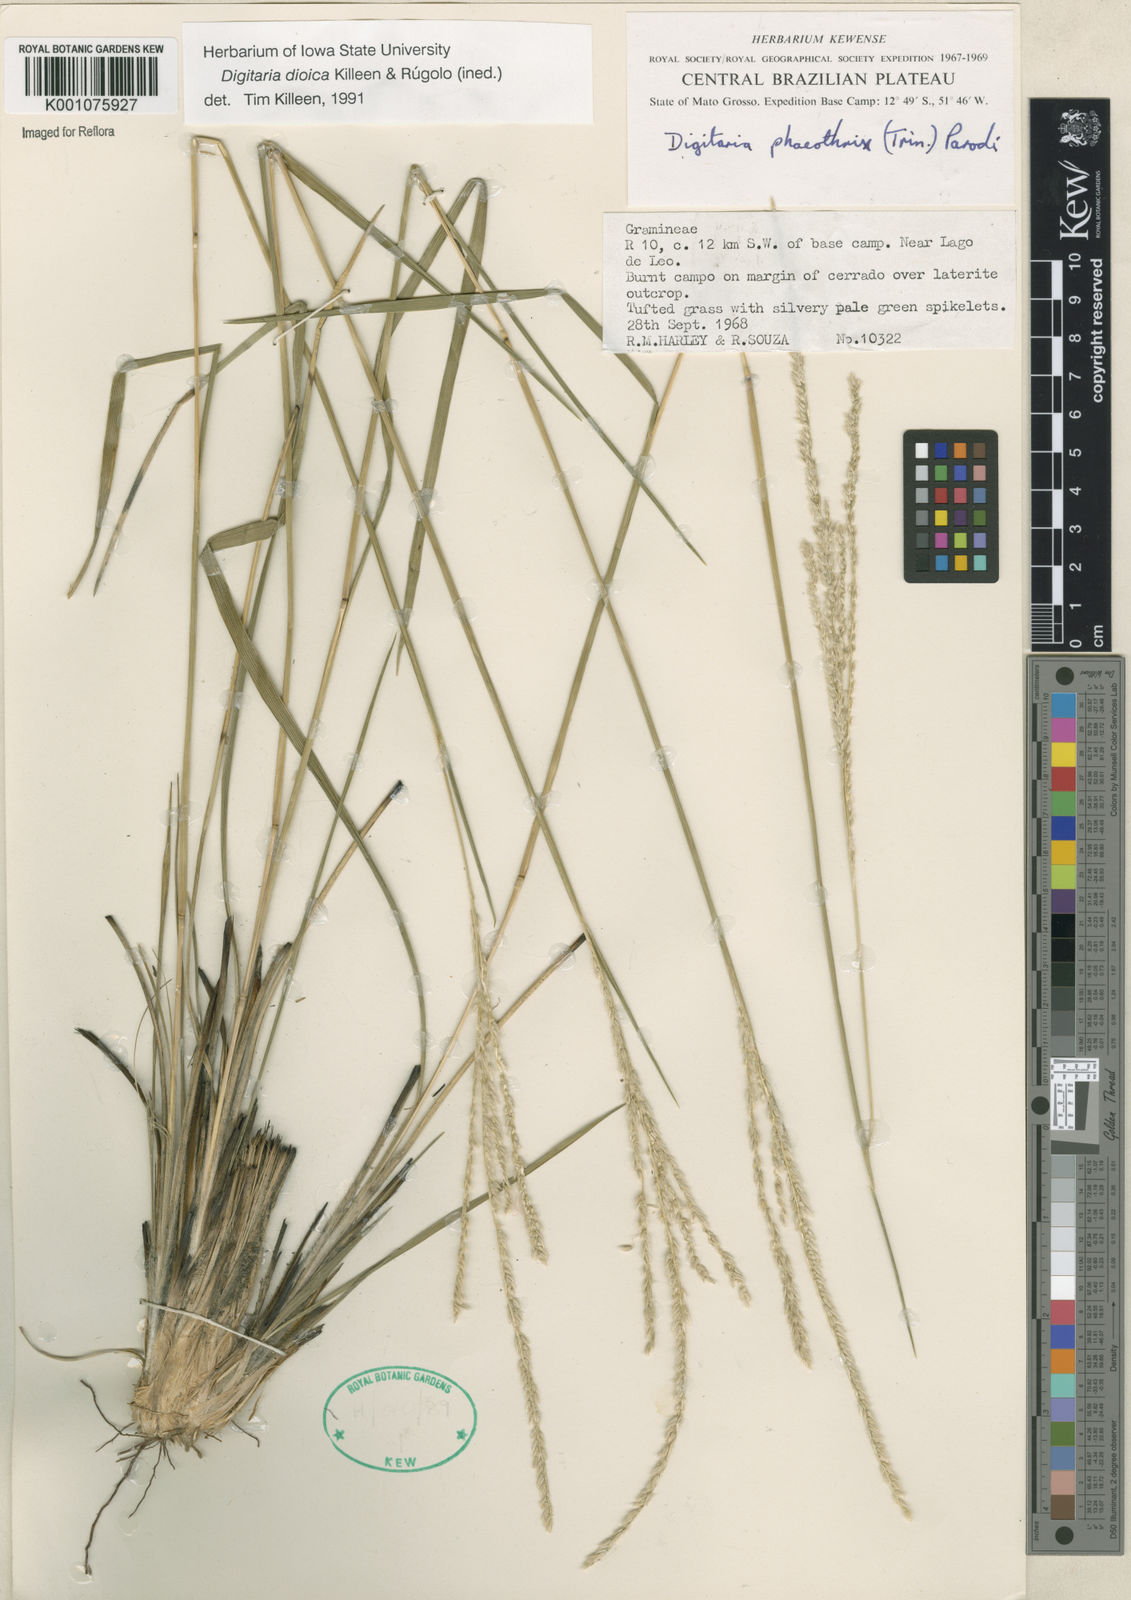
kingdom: Plantae
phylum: Tracheophyta
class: Liliopsida
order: Poales
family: Poaceae
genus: Digitaria
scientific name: Digitaria
